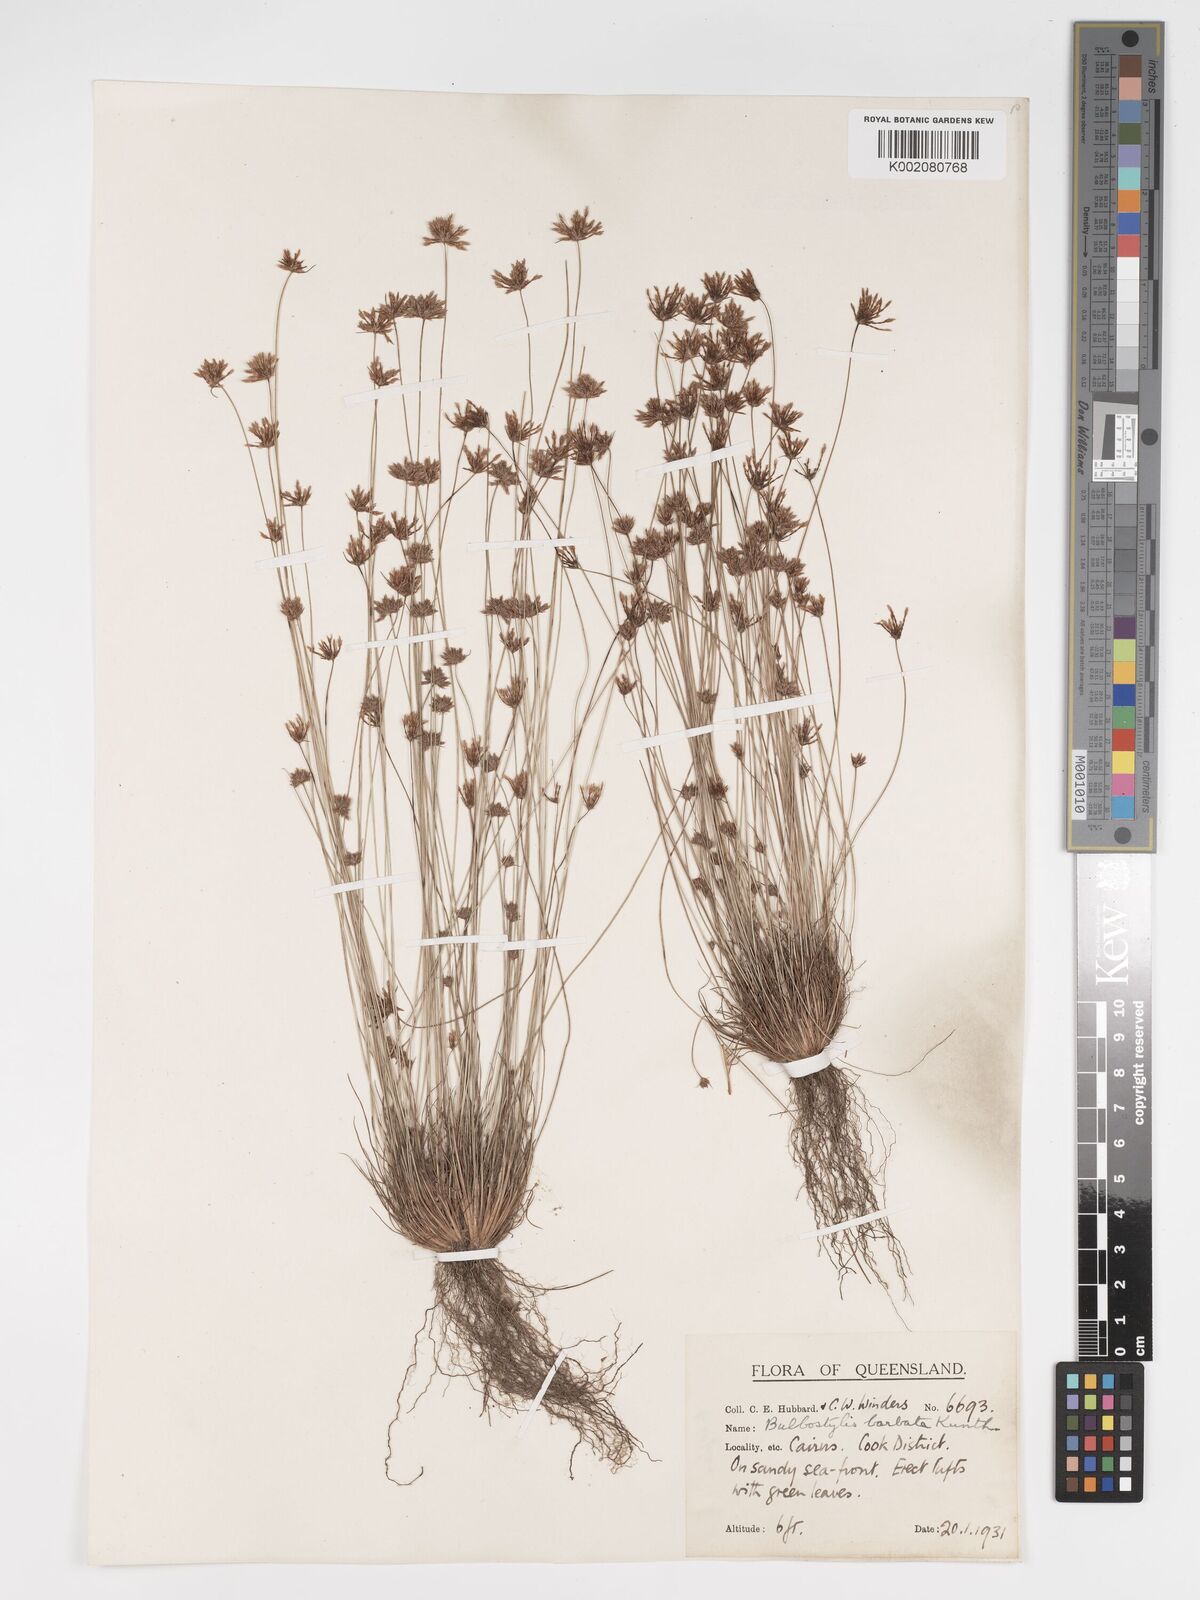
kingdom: Plantae
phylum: Tracheophyta
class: Liliopsida
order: Poales
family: Cyperaceae
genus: Bulbostylis
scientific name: Bulbostylis barbata
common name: Watergrass
